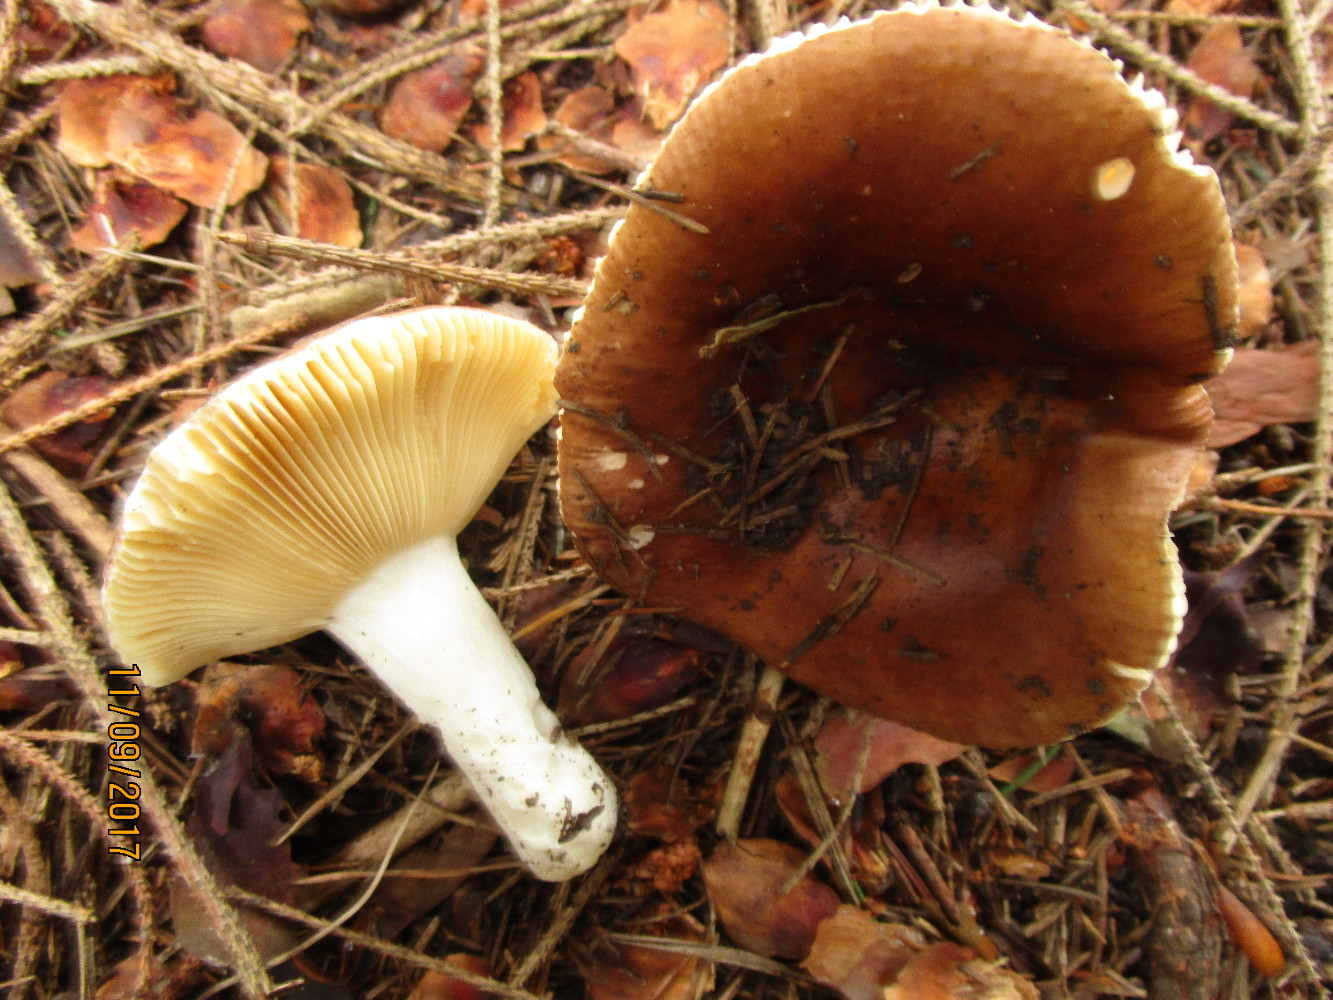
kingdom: Fungi
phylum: Basidiomycota
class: Agaricomycetes
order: Russulales
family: Russulaceae
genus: Russula
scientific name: Russula cessans
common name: fyrre-skørhat
